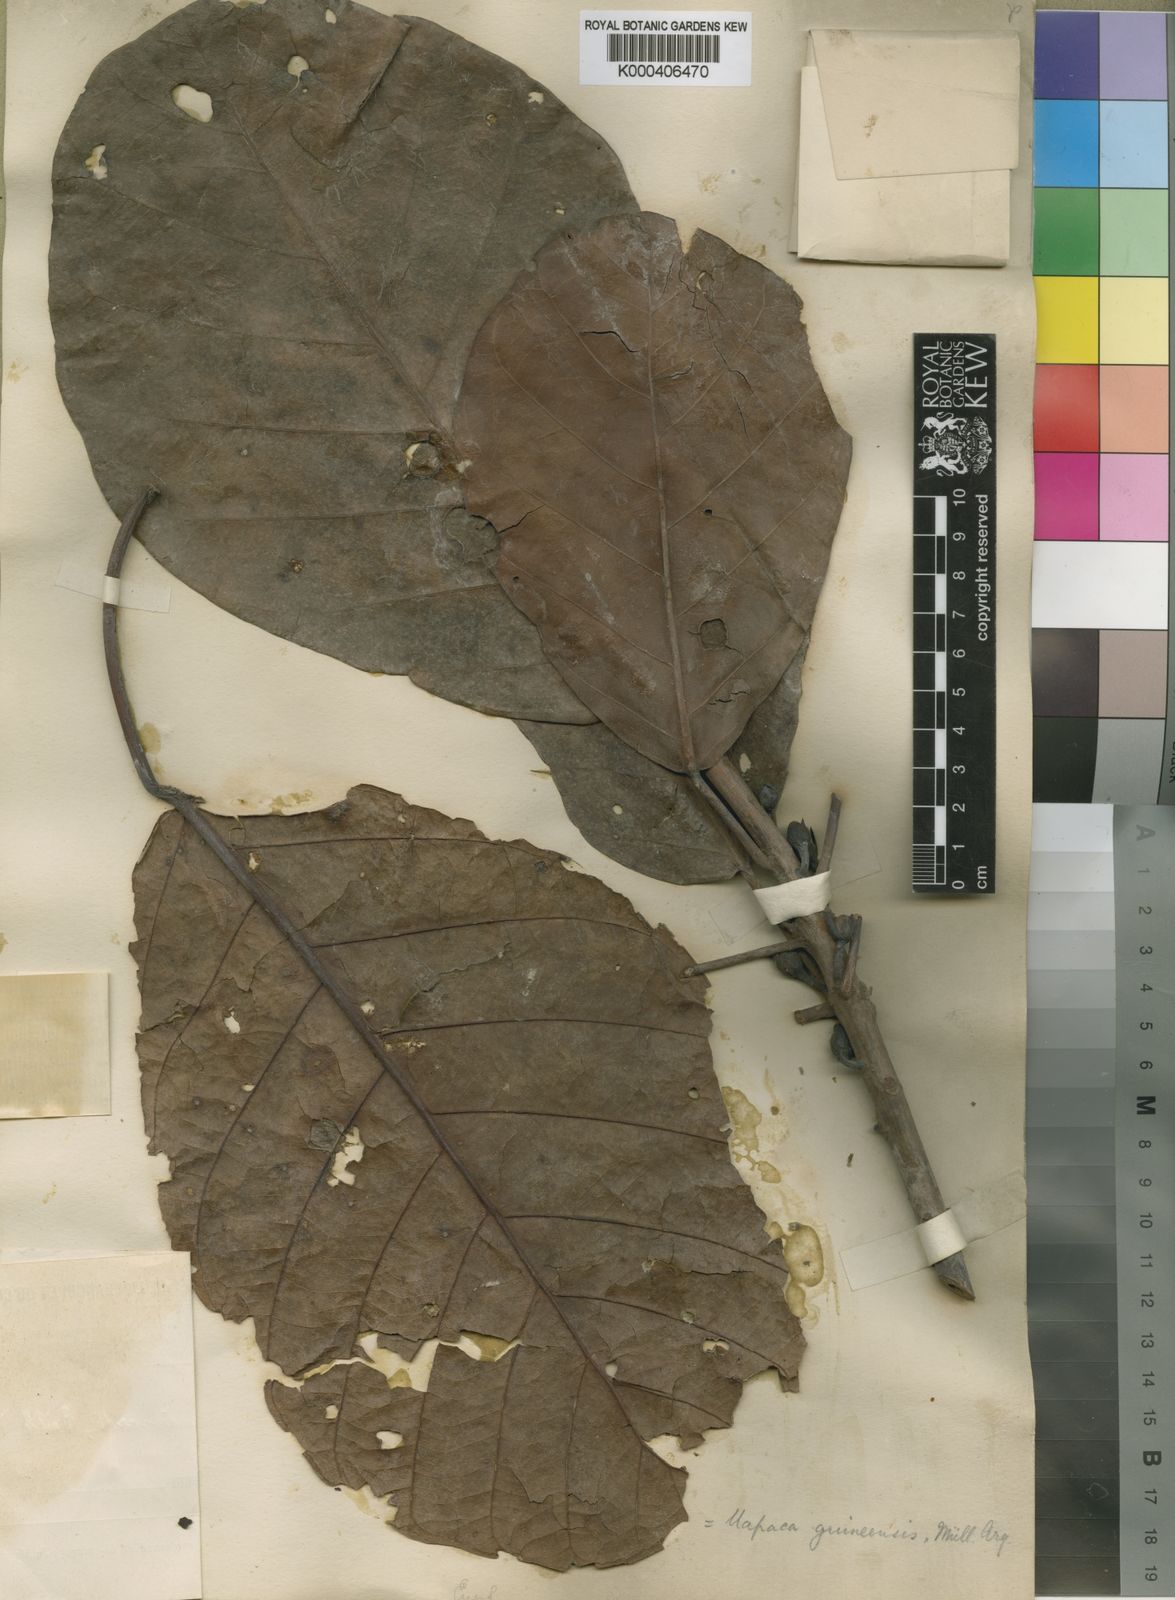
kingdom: Plantae
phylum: Tracheophyta
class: Magnoliopsida
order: Malpighiales
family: Phyllanthaceae
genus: Uapaca
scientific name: Uapaca togoensis
